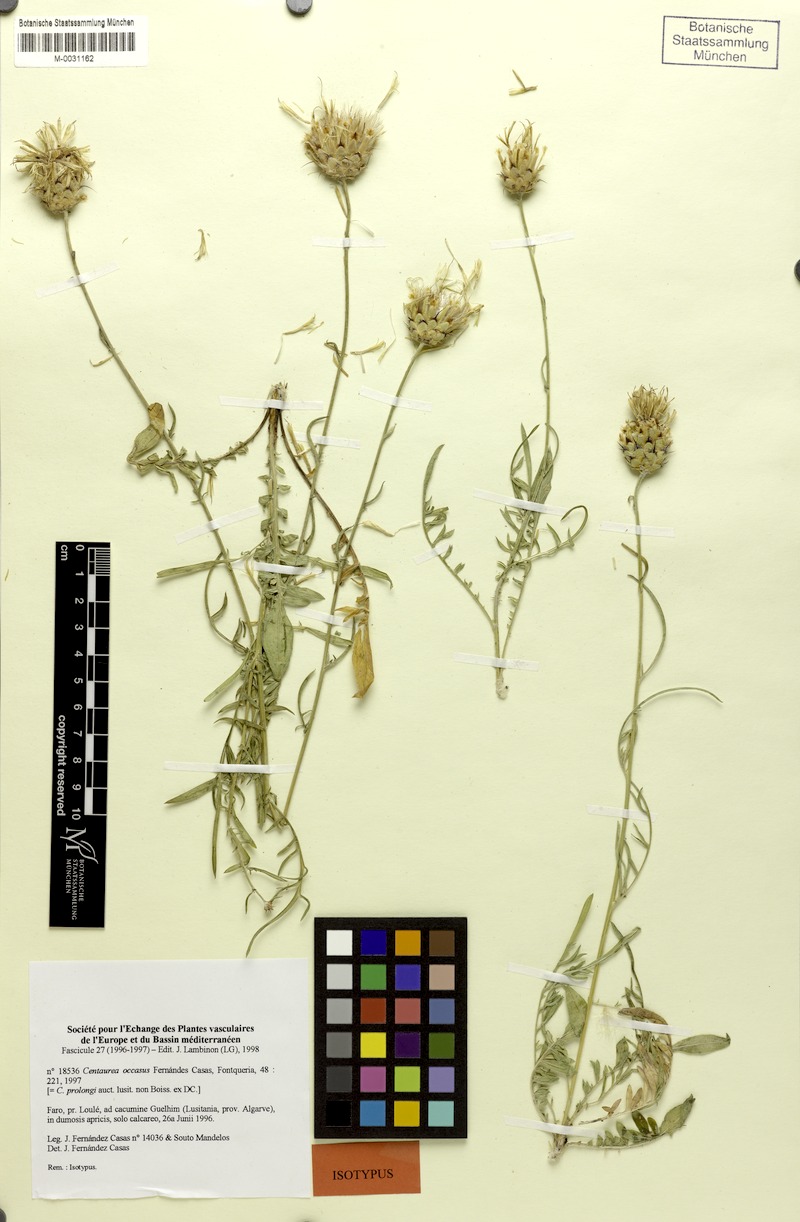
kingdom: Plantae
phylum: Tracheophyta
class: Magnoliopsida
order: Asterales
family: Asteraceae
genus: Centaurea
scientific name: Centaurea occasus
